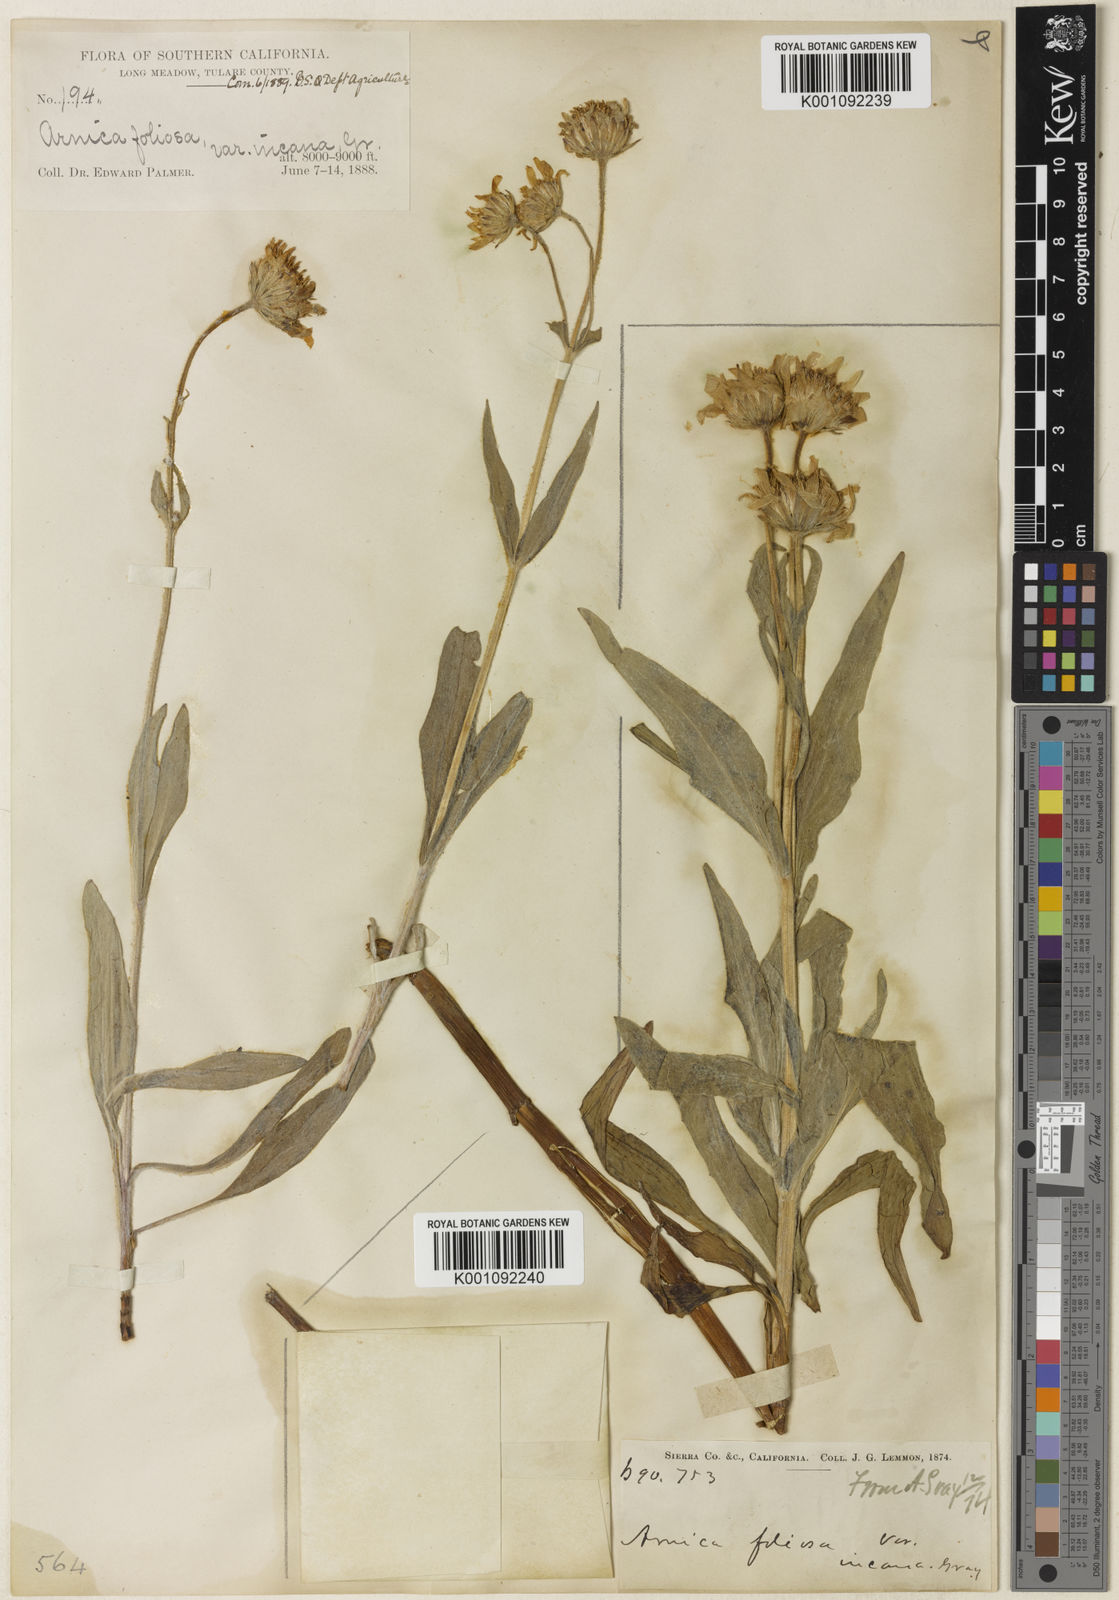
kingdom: Plantae
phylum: Tracheophyta
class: Magnoliopsida
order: Asterales
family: Asteraceae
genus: Arnica
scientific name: Arnica chamissonis
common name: Leafy arnica
